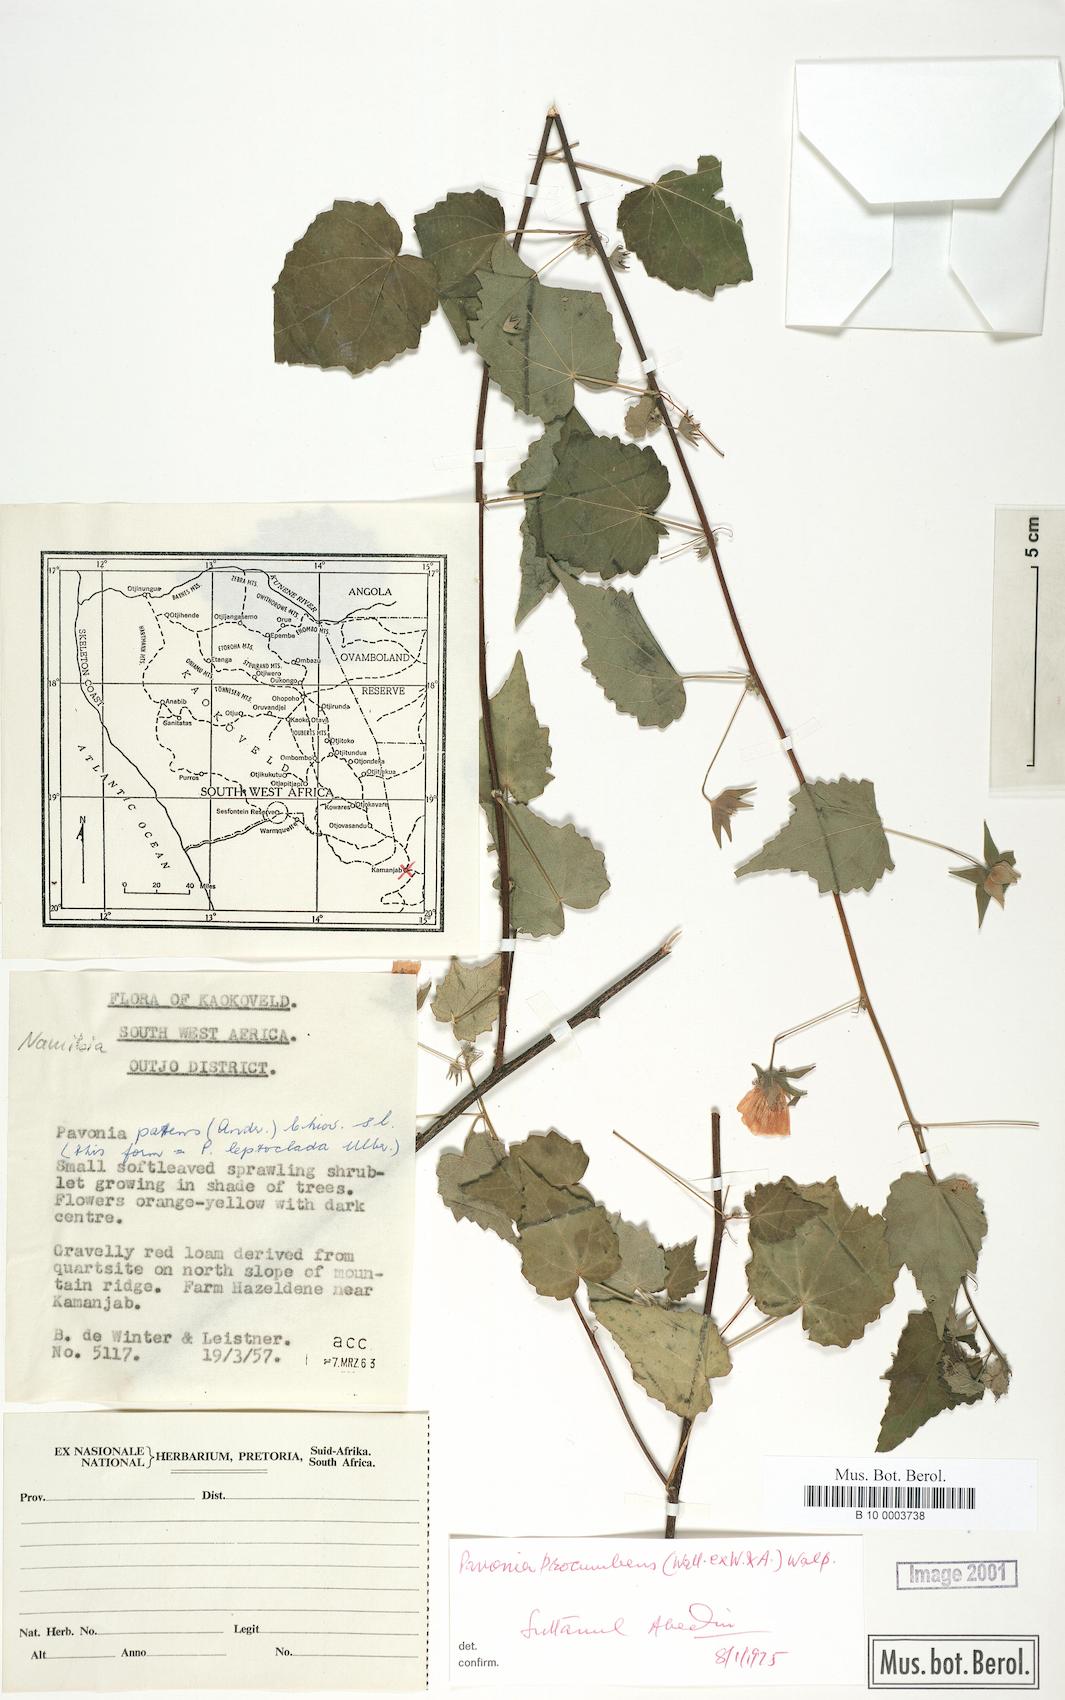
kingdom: Plantae
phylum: Tracheophyta
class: Magnoliopsida
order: Malvales
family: Malvaceae
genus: Pavonia
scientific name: Pavonia procumbens
